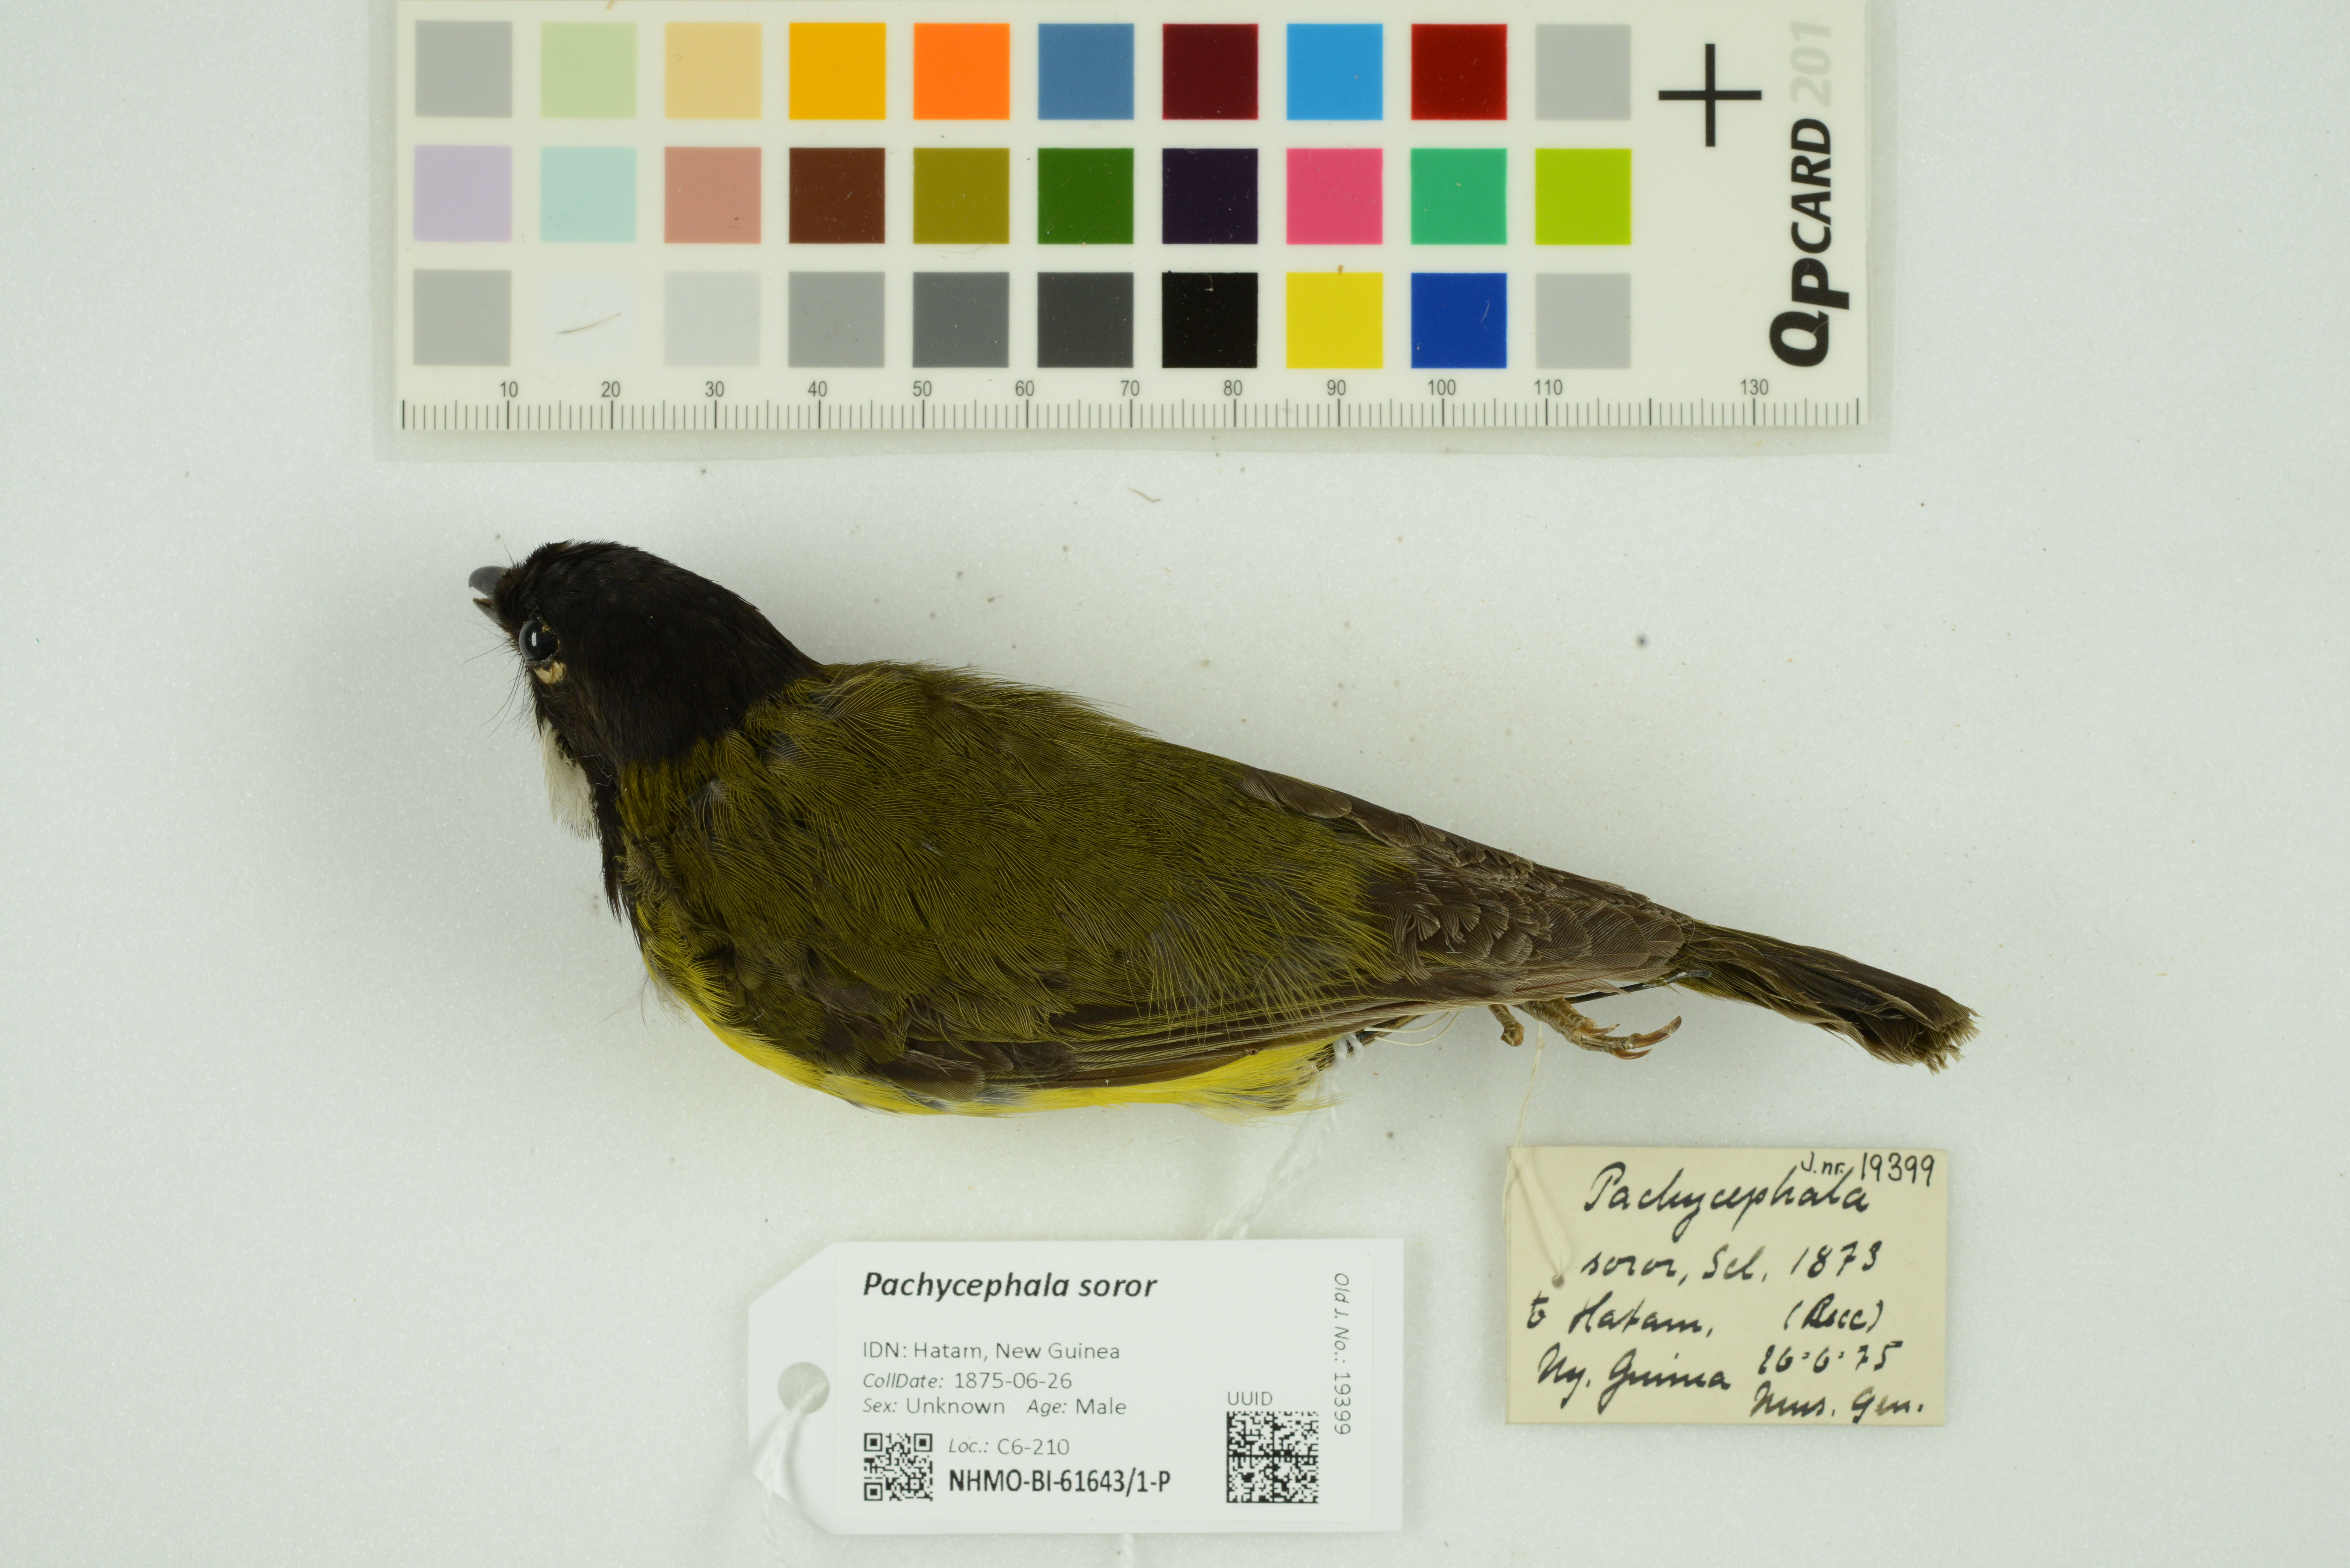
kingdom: Animalia
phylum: Chordata
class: Aves
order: Passeriformes
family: Pachycephalidae
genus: Pachycephala
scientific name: Pachycephala soror
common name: Sclater's whistler
